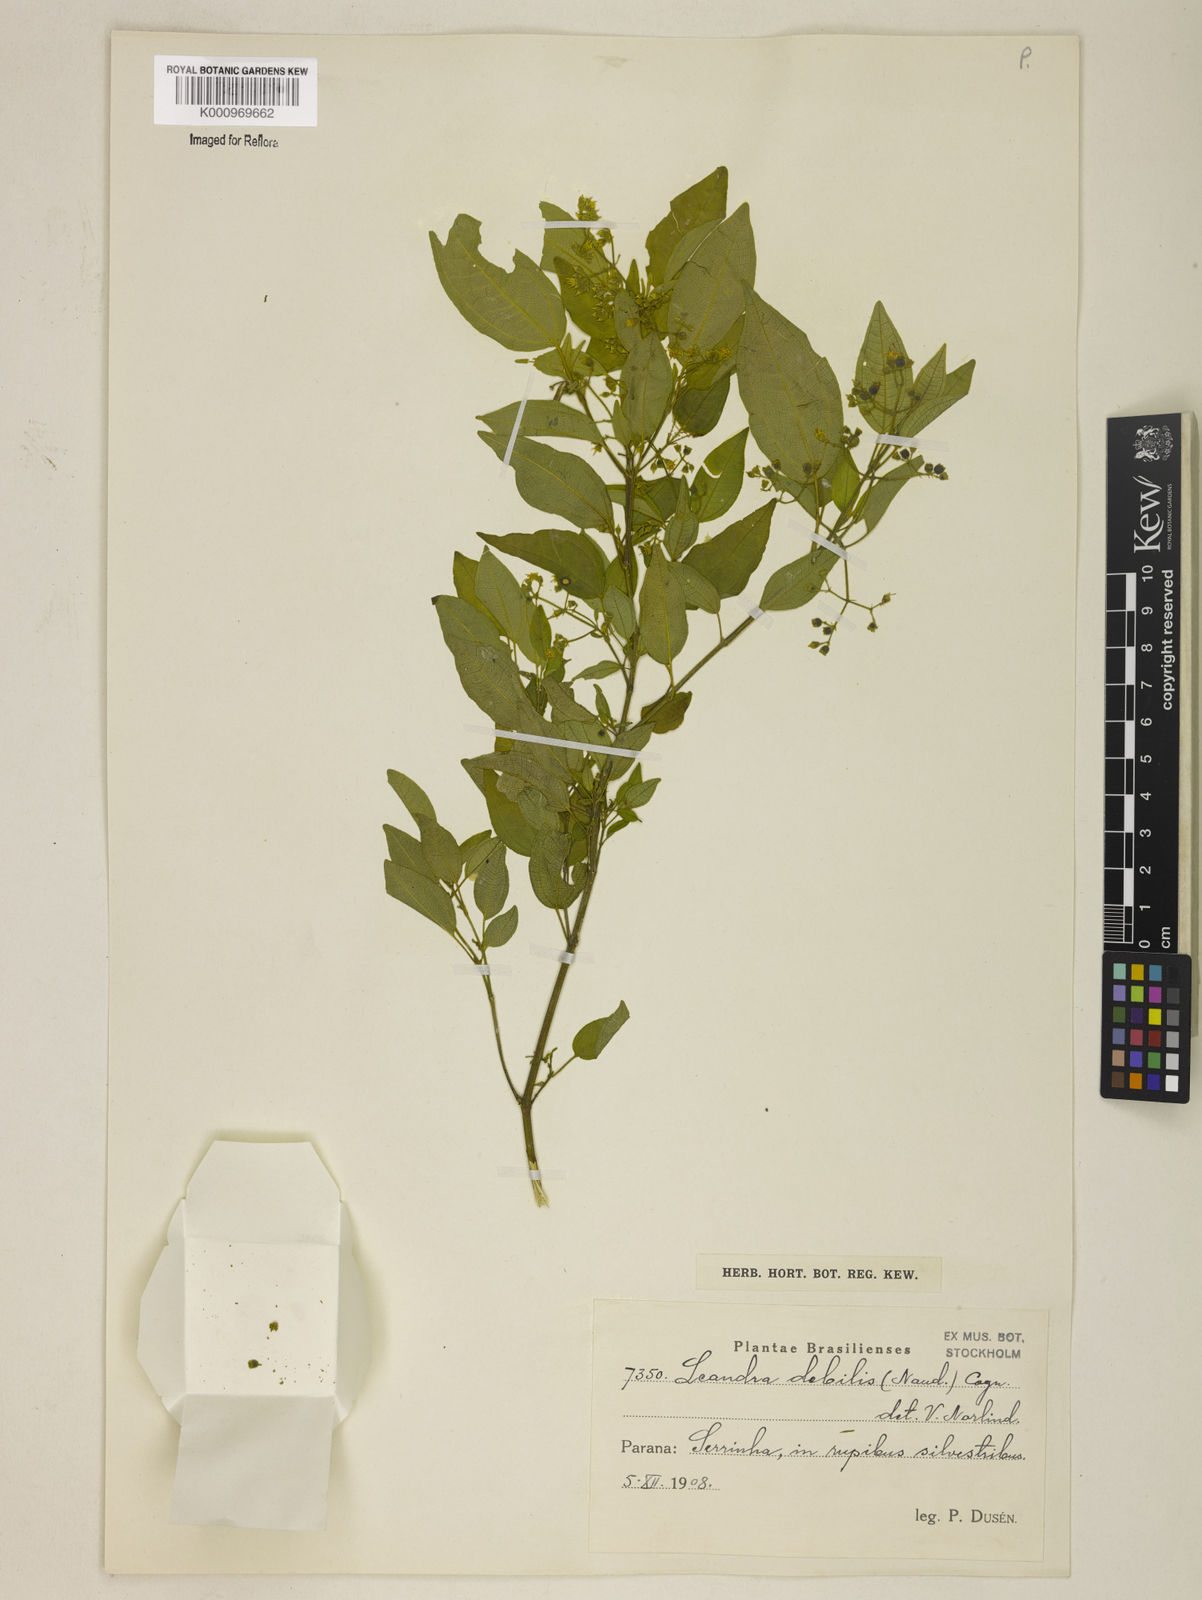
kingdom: Plantae
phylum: Tracheophyta
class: Magnoliopsida
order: Myrtales
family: Melastomataceae
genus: Miconia
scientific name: Miconia leadebilis
